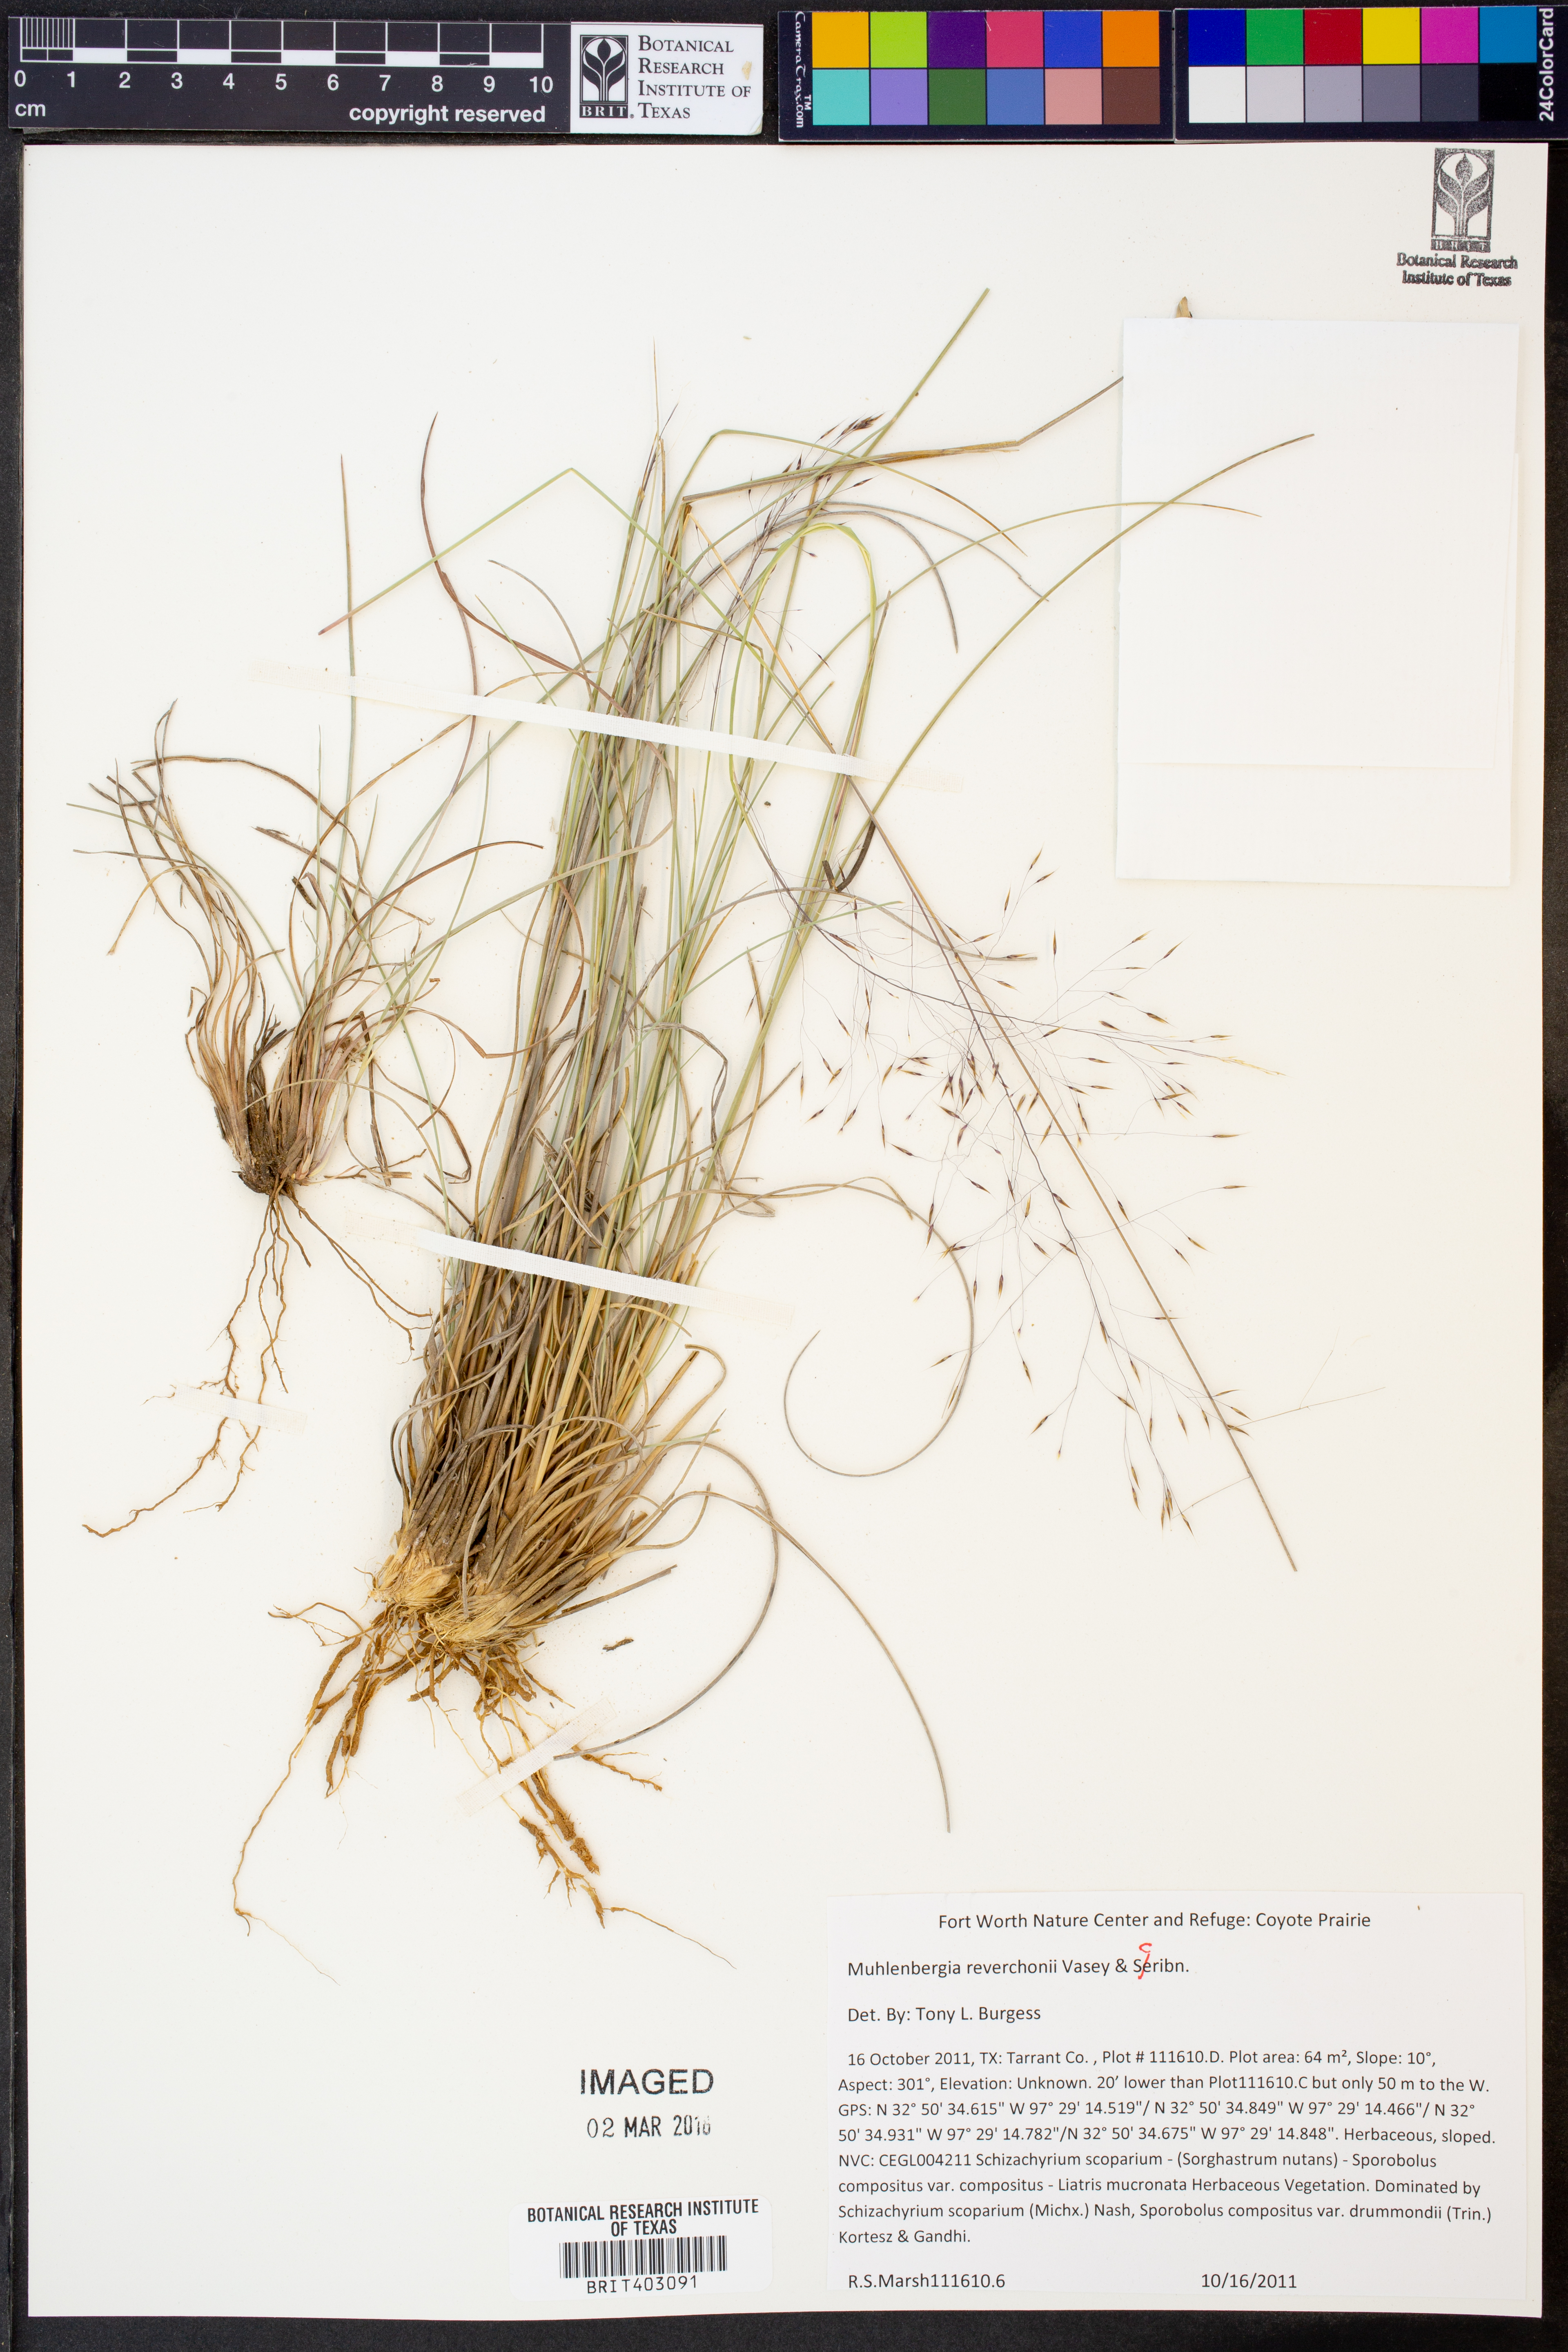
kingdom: Plantae
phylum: Tracheophyta
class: Liliopsida
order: Poales
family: Poaceae
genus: Muhlenbergia
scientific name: Muhlenbergia reverchonii
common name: Seep muhly
